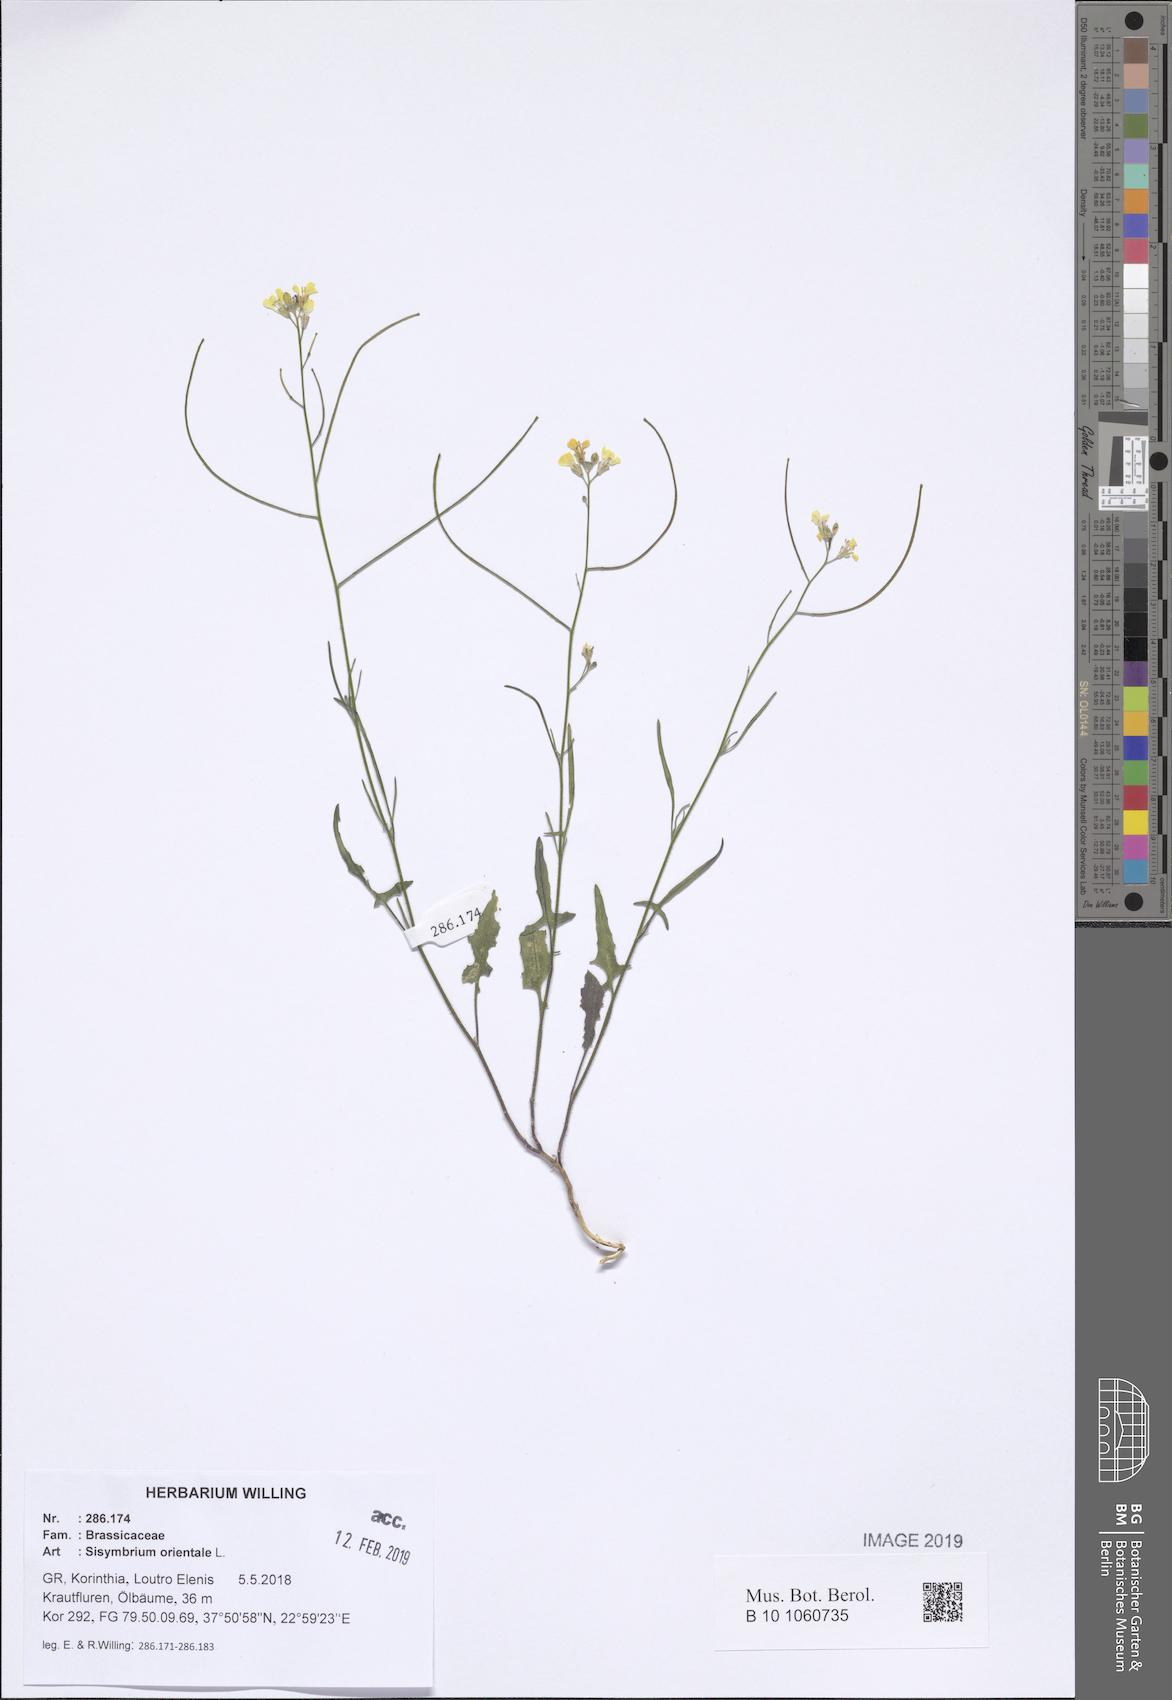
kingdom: Plantae
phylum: Tracheophyta
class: Magnoliopsida
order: Brassicales
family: Brassicaceae
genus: Sisymbrium
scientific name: Sisymbrium orientale
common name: Eastern rocket
